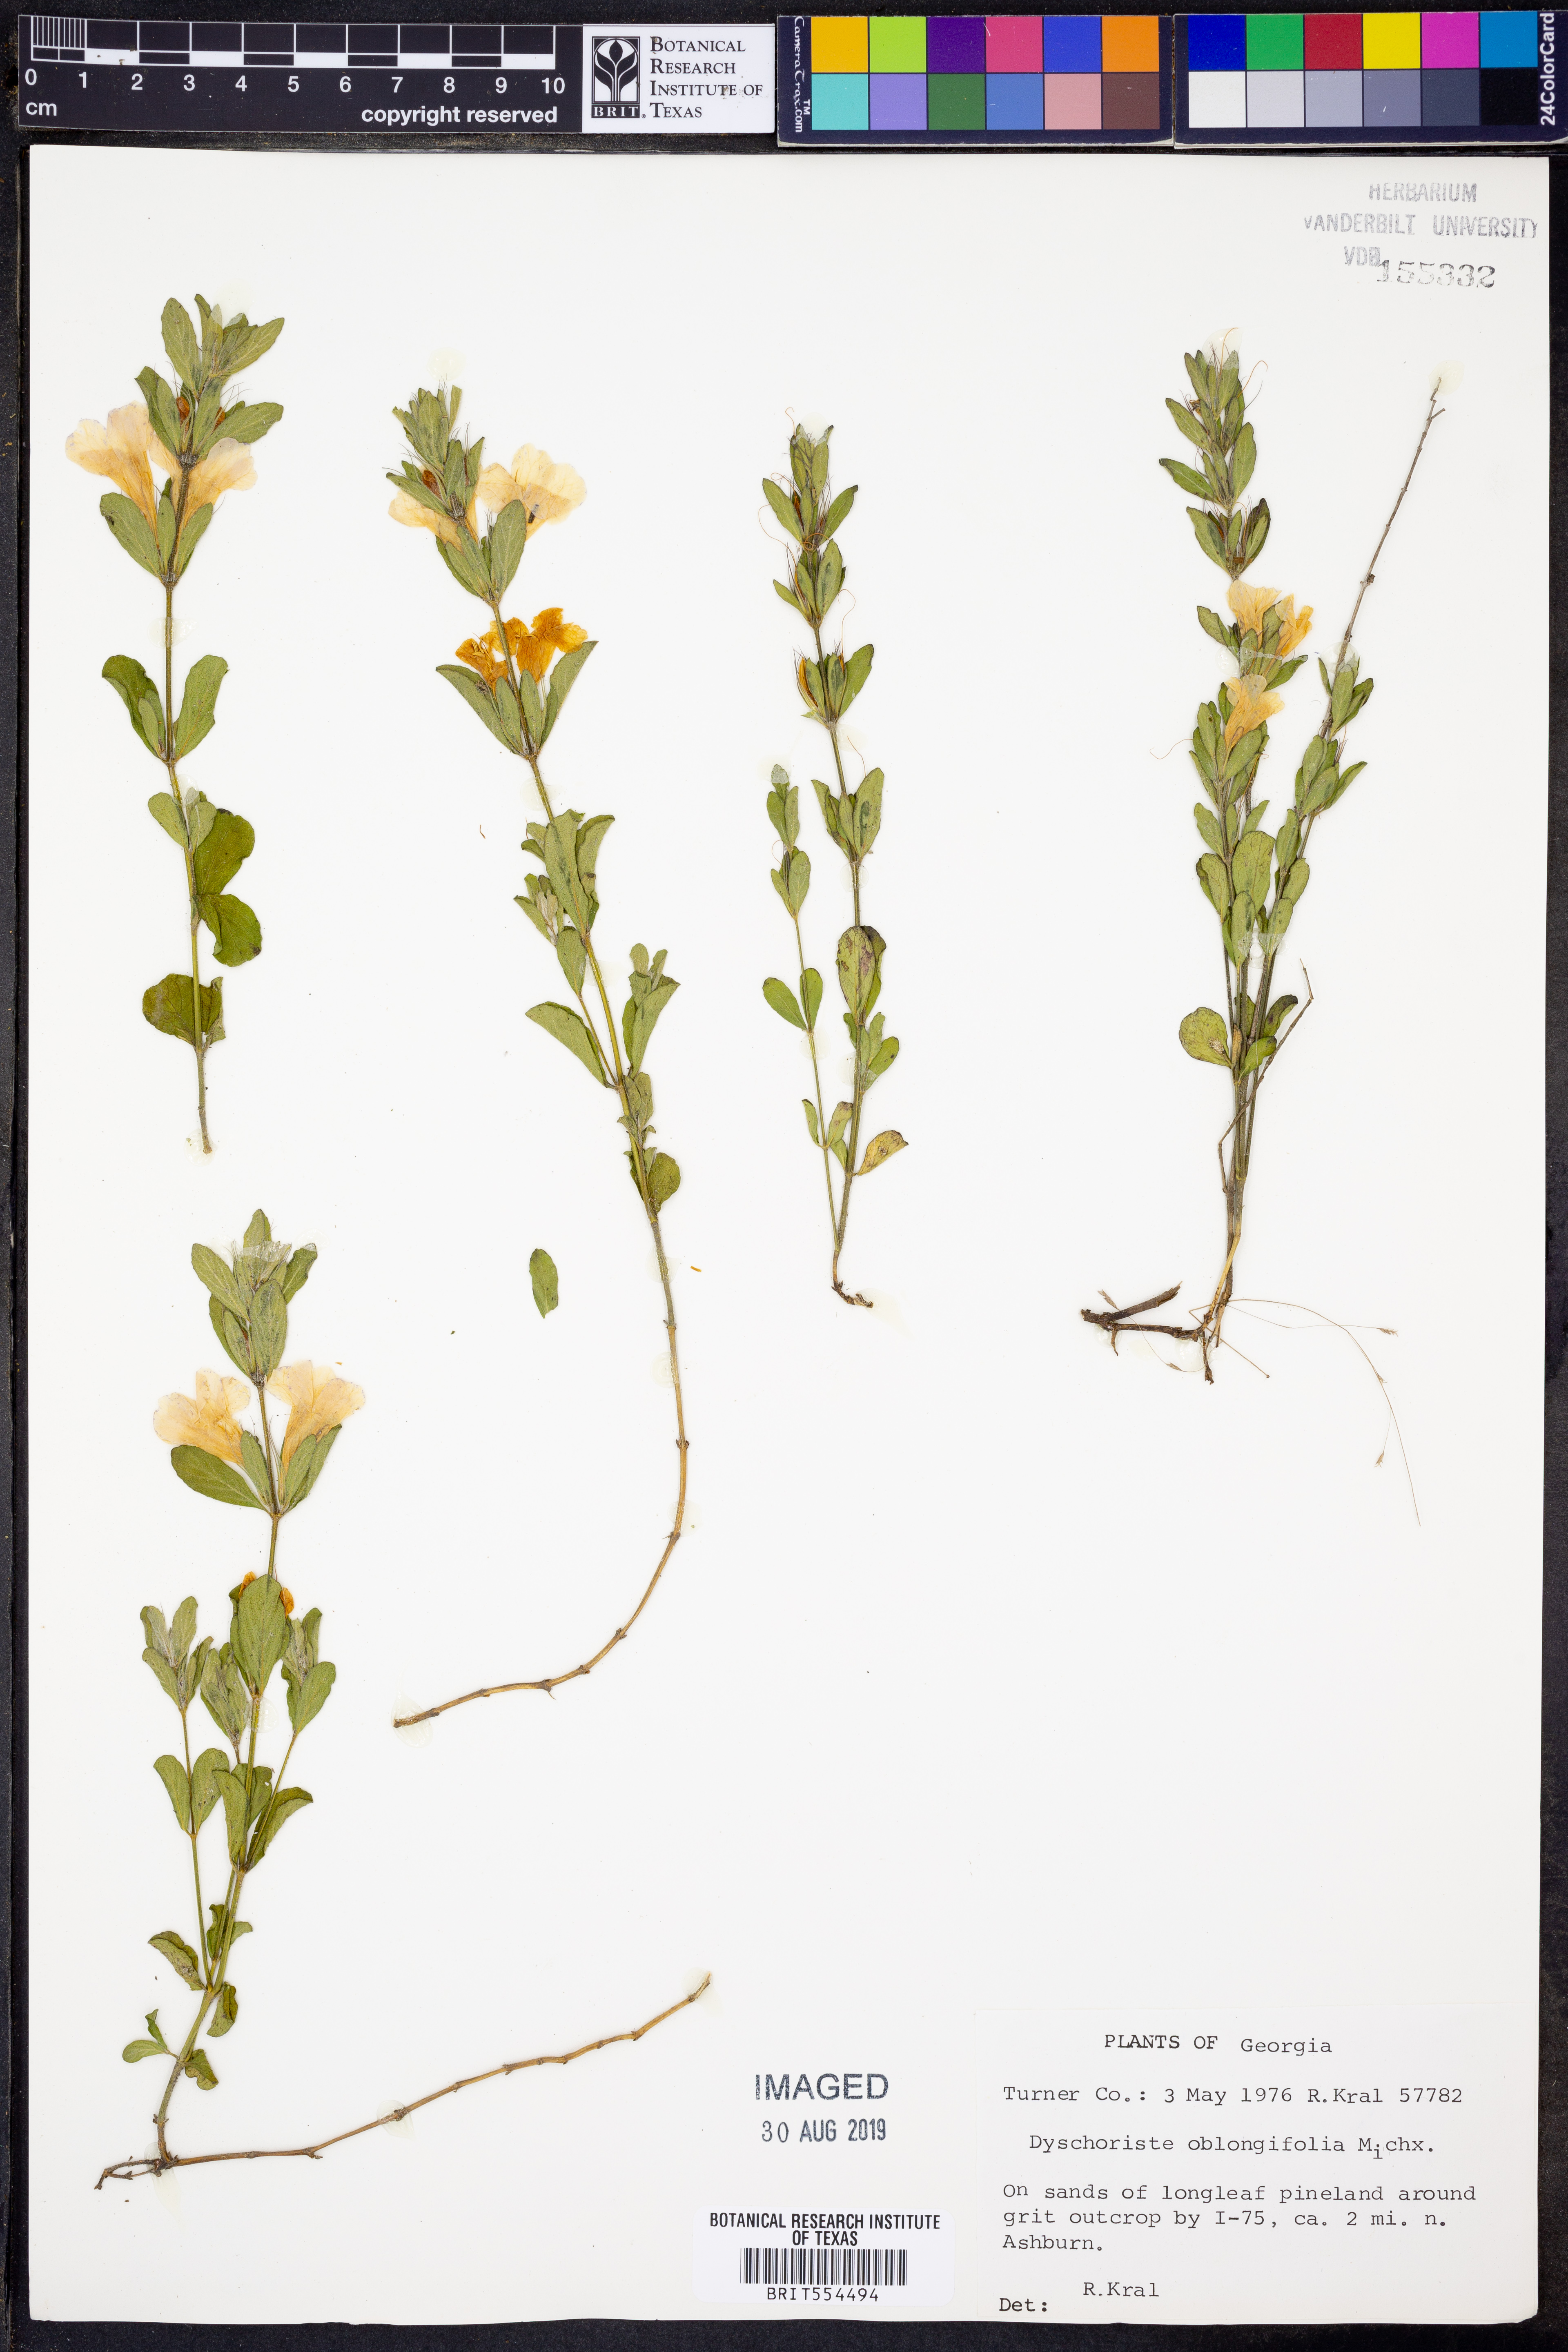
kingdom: Plantae
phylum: Tracheophyta
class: Magnoliopsida
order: Lamiales
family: Acanthaceae
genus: Dyschoriste
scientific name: Dyschoriste oblongifolia
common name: Blue twinflower
